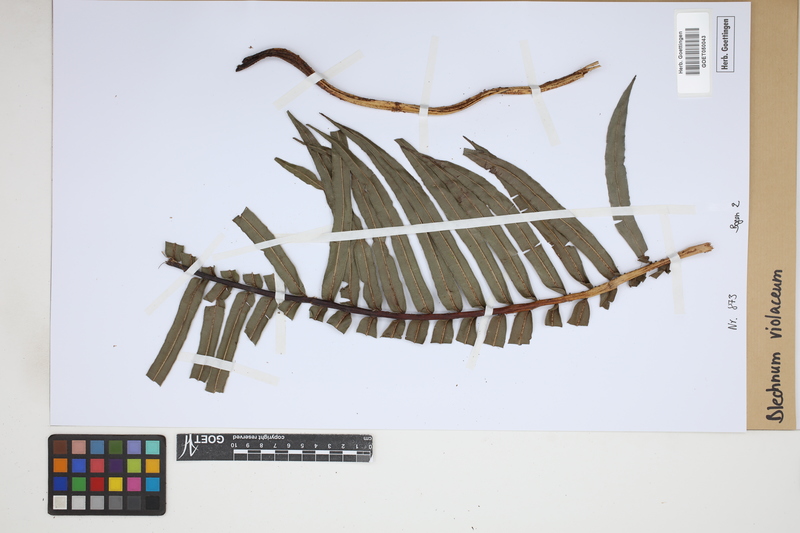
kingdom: Plantae
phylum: Tracheophyta
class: Polypodiopsida
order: Polypodiales
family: Blechnaceae
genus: Parablechnum
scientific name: Parablechnum lechleri
